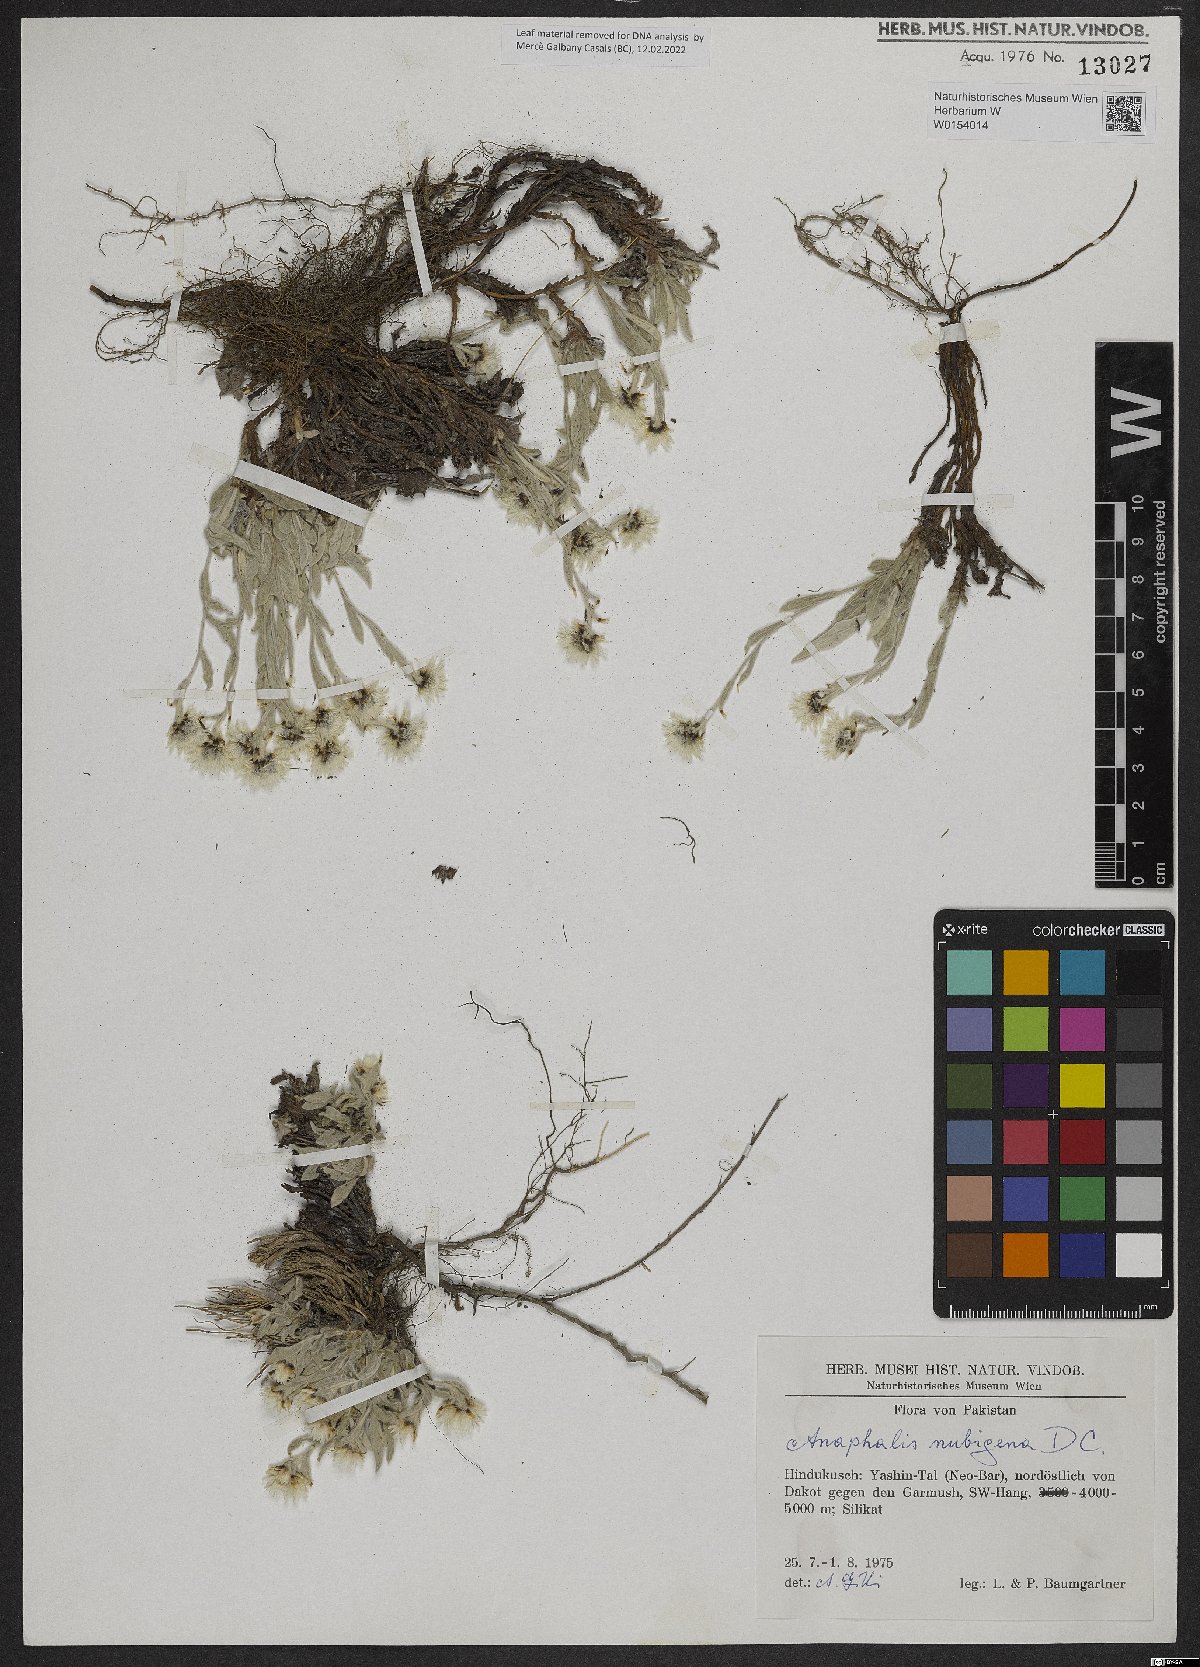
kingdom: Plantae
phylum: Tracheophyta
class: Magnoliopsida
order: Asterales
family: Asteraceae
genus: Anaphalis
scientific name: Anaphalis nepalensis
